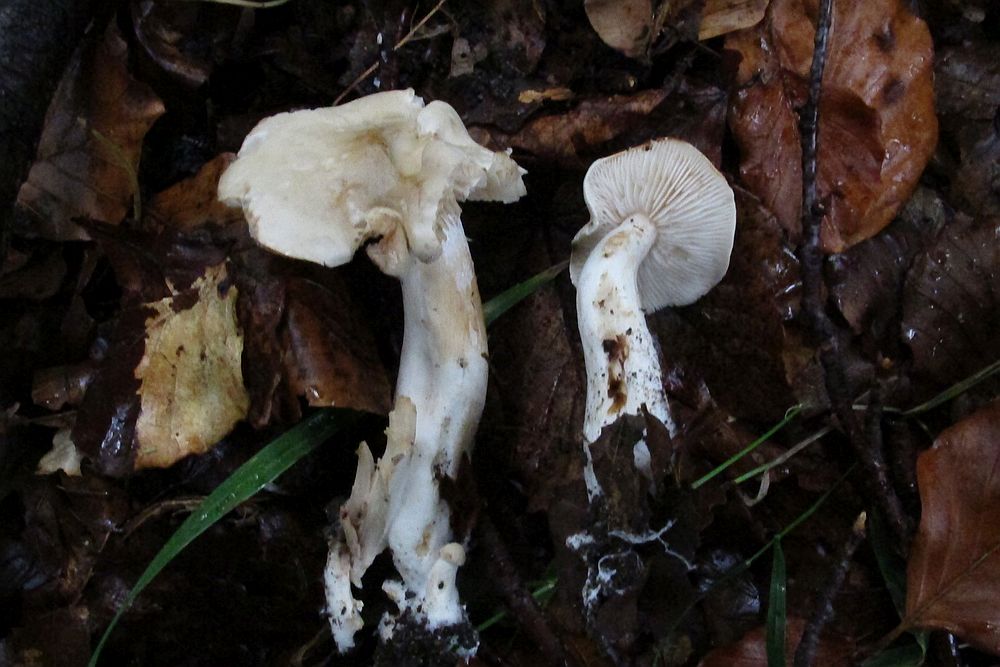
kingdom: Fungi
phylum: Basidiomycota
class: Agaricomycetes
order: Agaricales
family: Tricholomataceae
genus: Tricholoma
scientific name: Tricholoma
